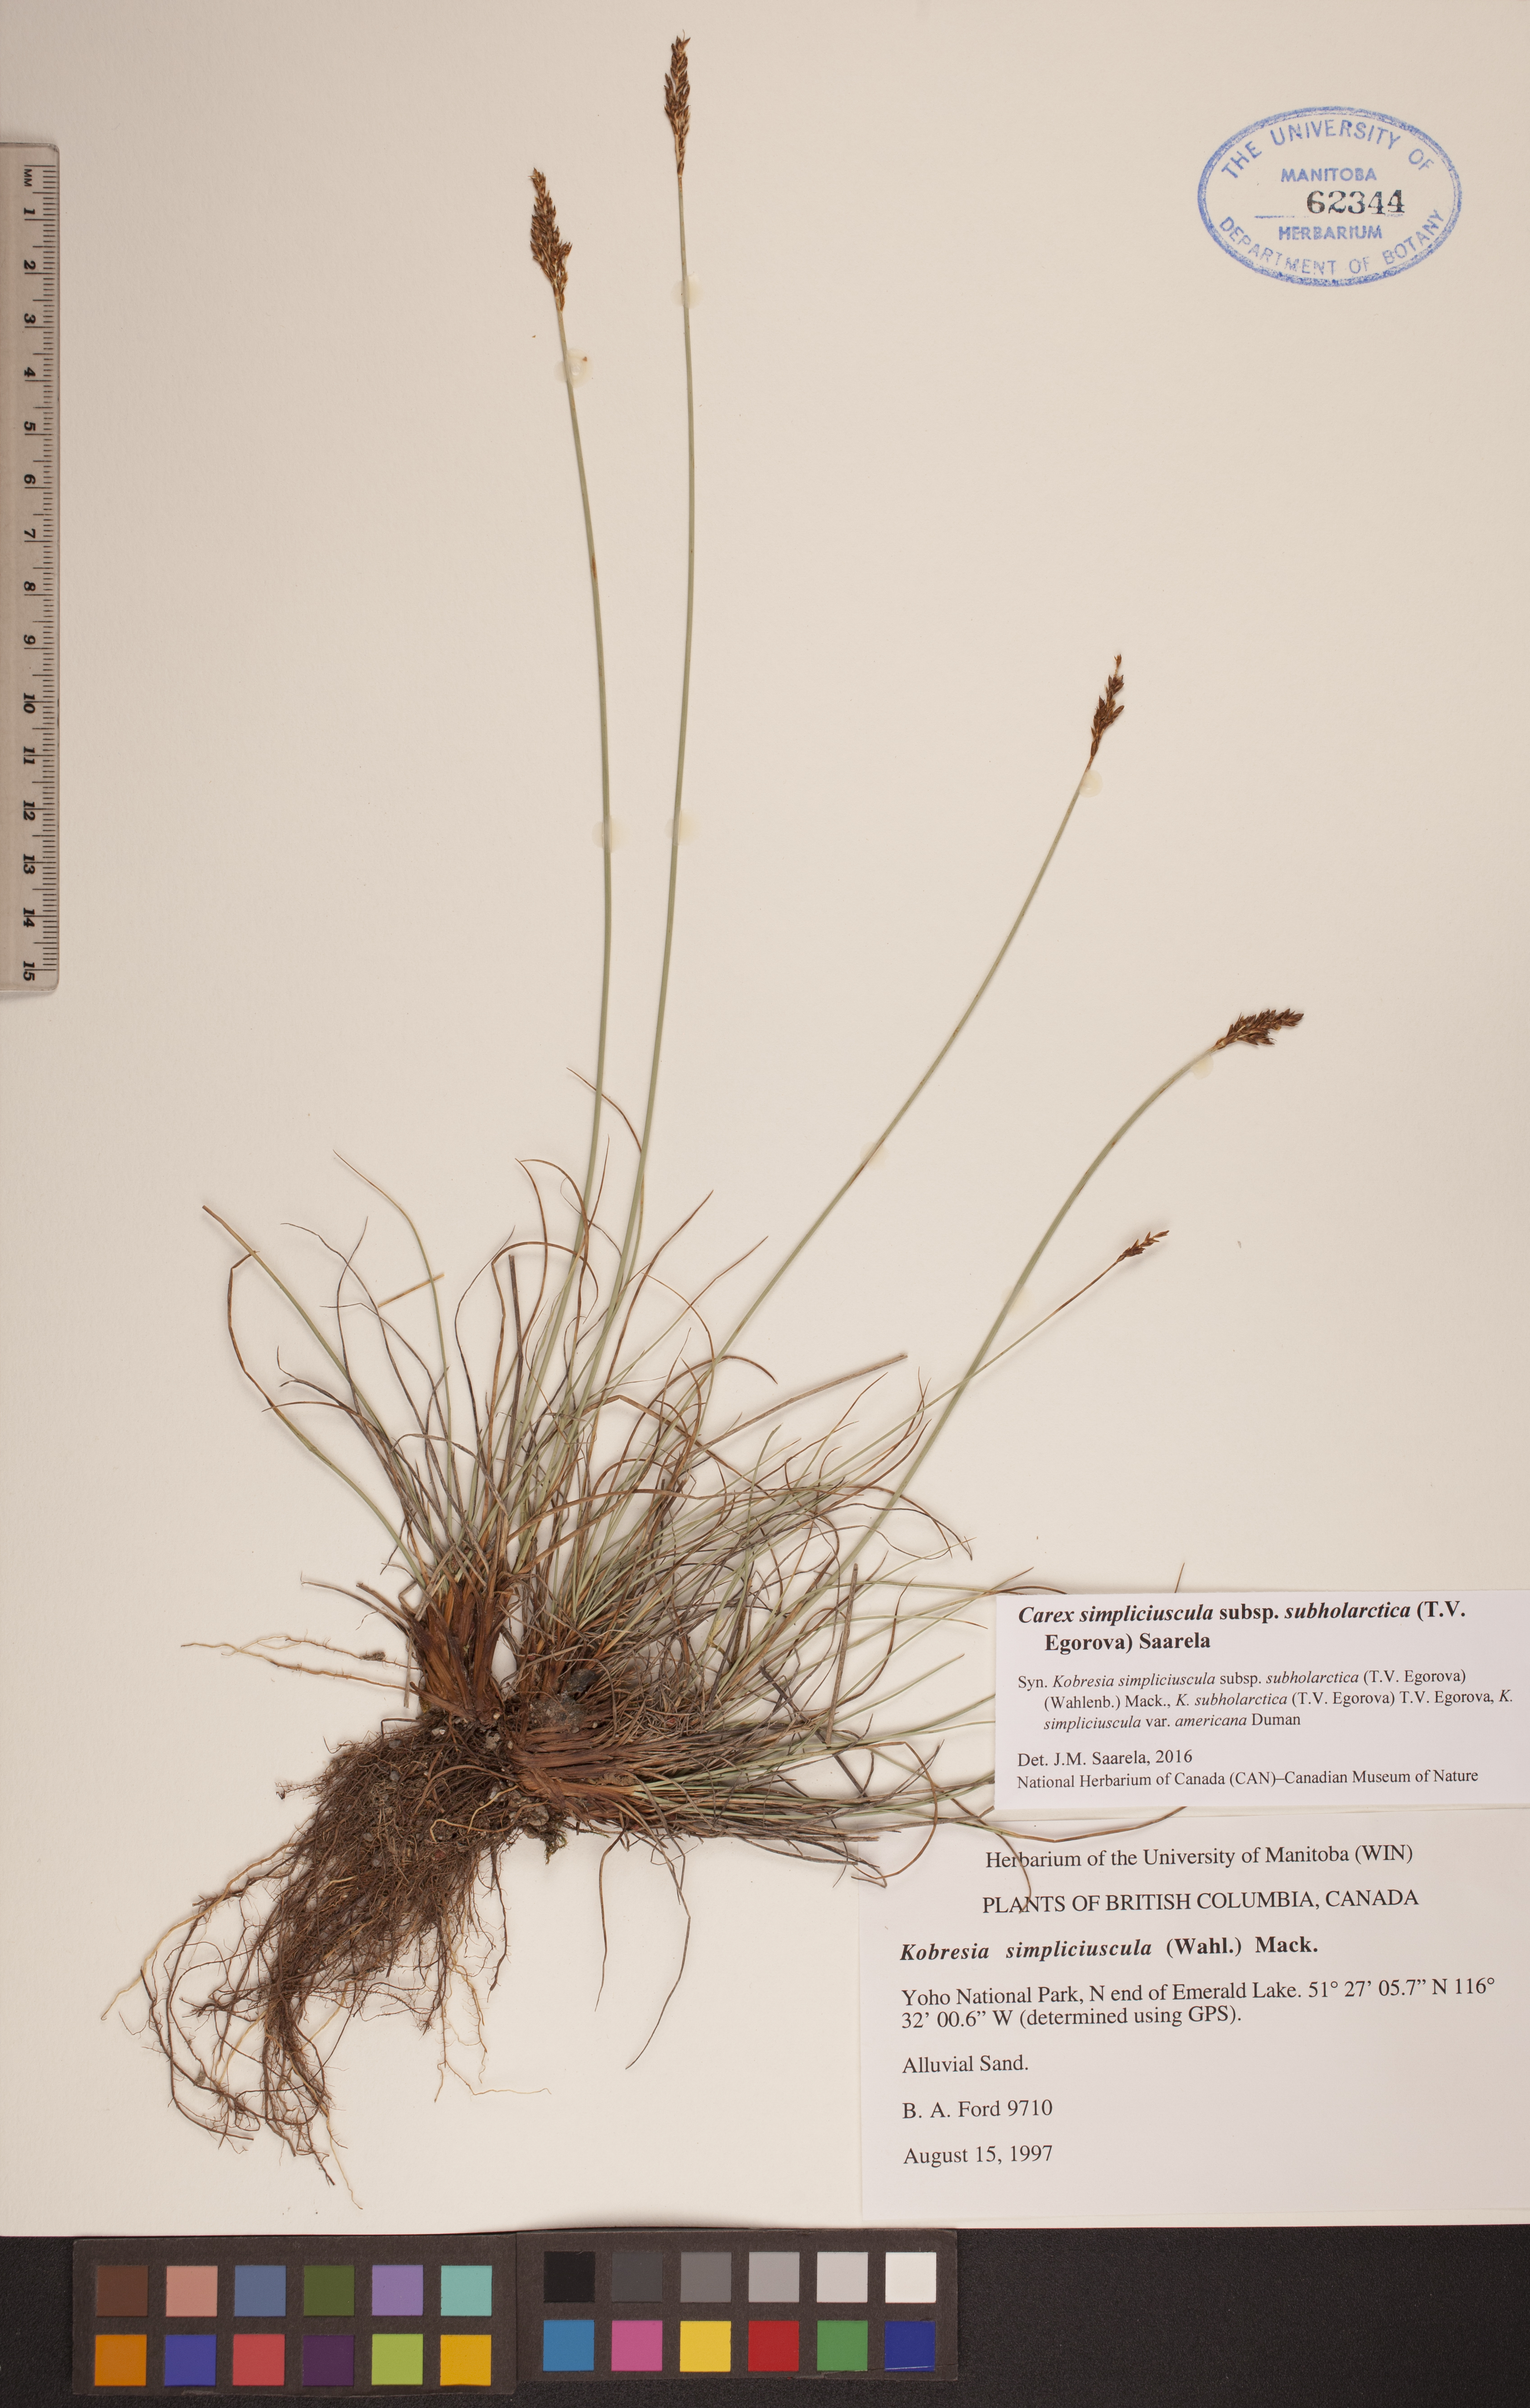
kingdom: Plantae
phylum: Tracheophyta
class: Liliopsida
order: Poales
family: Cyperaceae
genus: Carex
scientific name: Carex simpliciuscula
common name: Simple bog sedge
